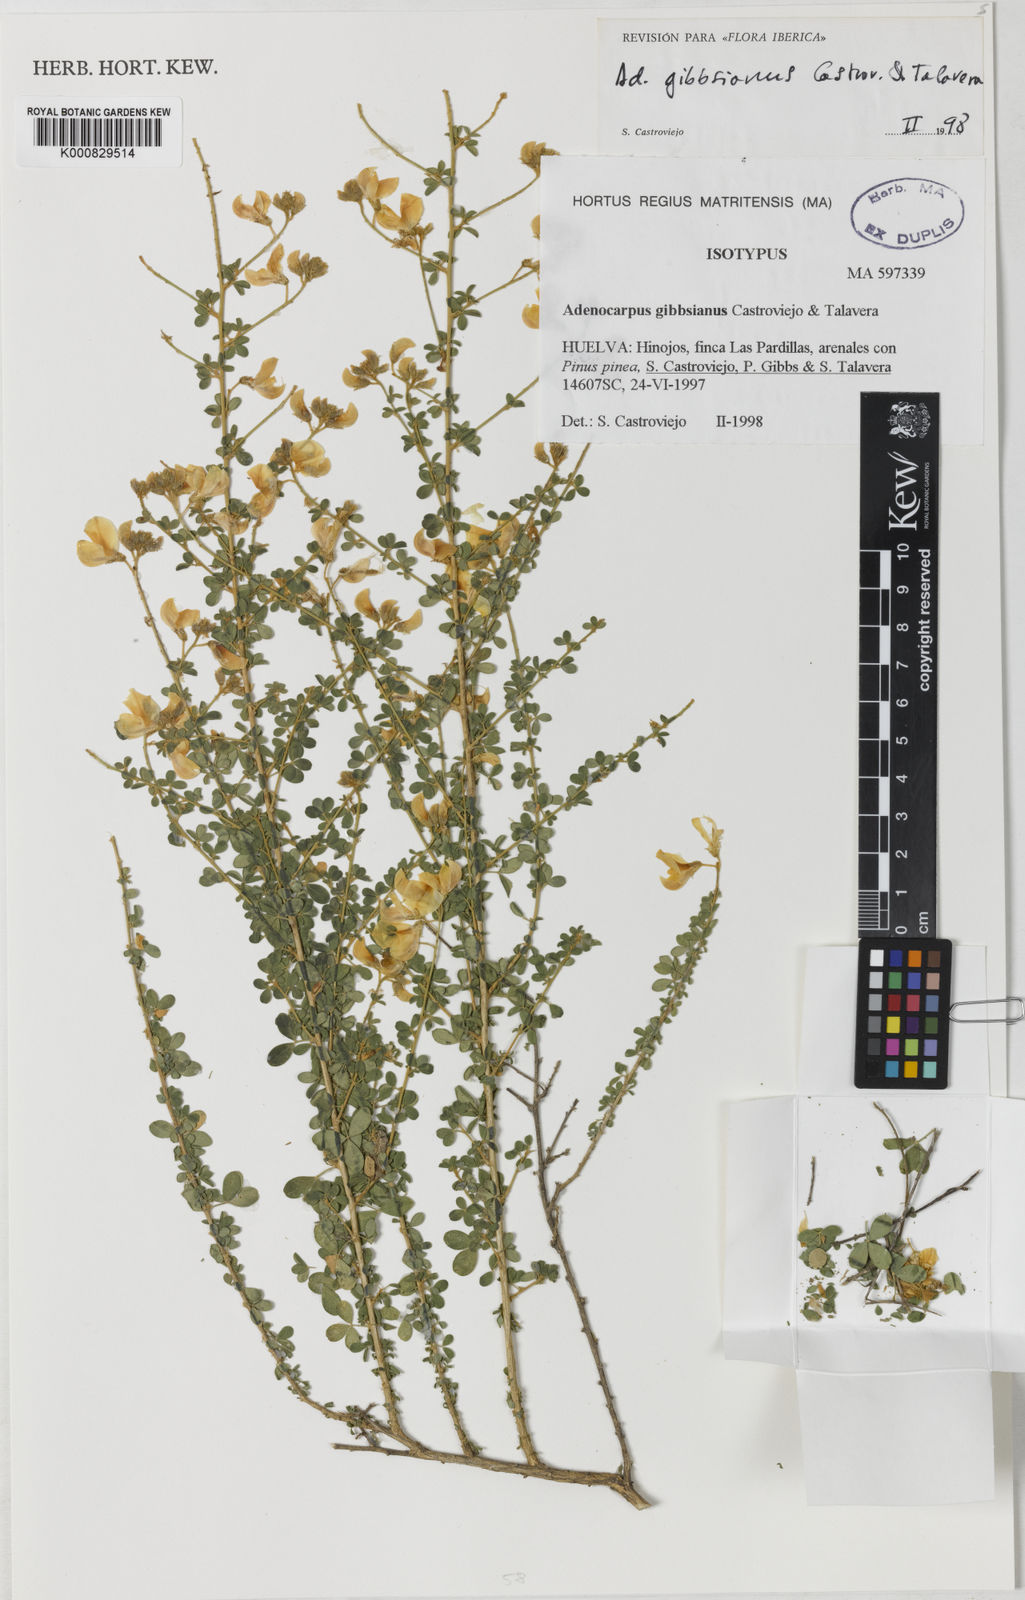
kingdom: Plantae
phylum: Tracheophyta
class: Magnoliopsida
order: Fabales
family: Fabaceae
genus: Adenocarpus
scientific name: Adenocarpus complicatus
